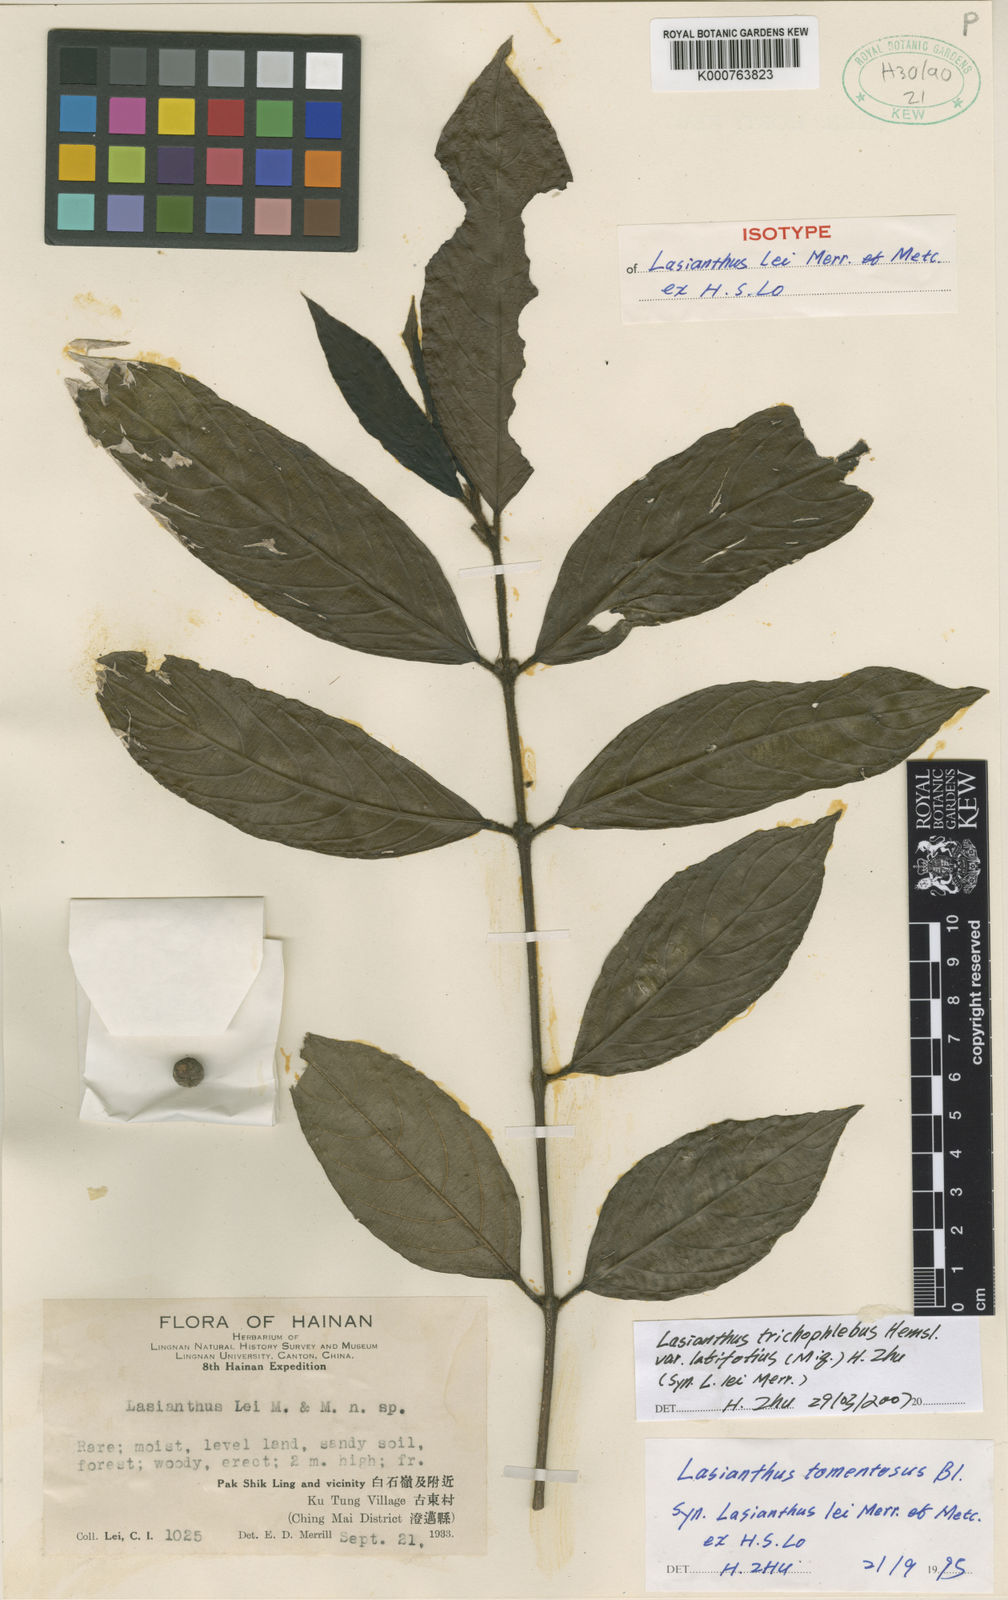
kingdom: Plantae
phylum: Tracheophyta
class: Magnoliopsida
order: Gentianales
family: Rubiaceae
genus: Lasianthus
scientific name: Lasianthus trichophlebus
